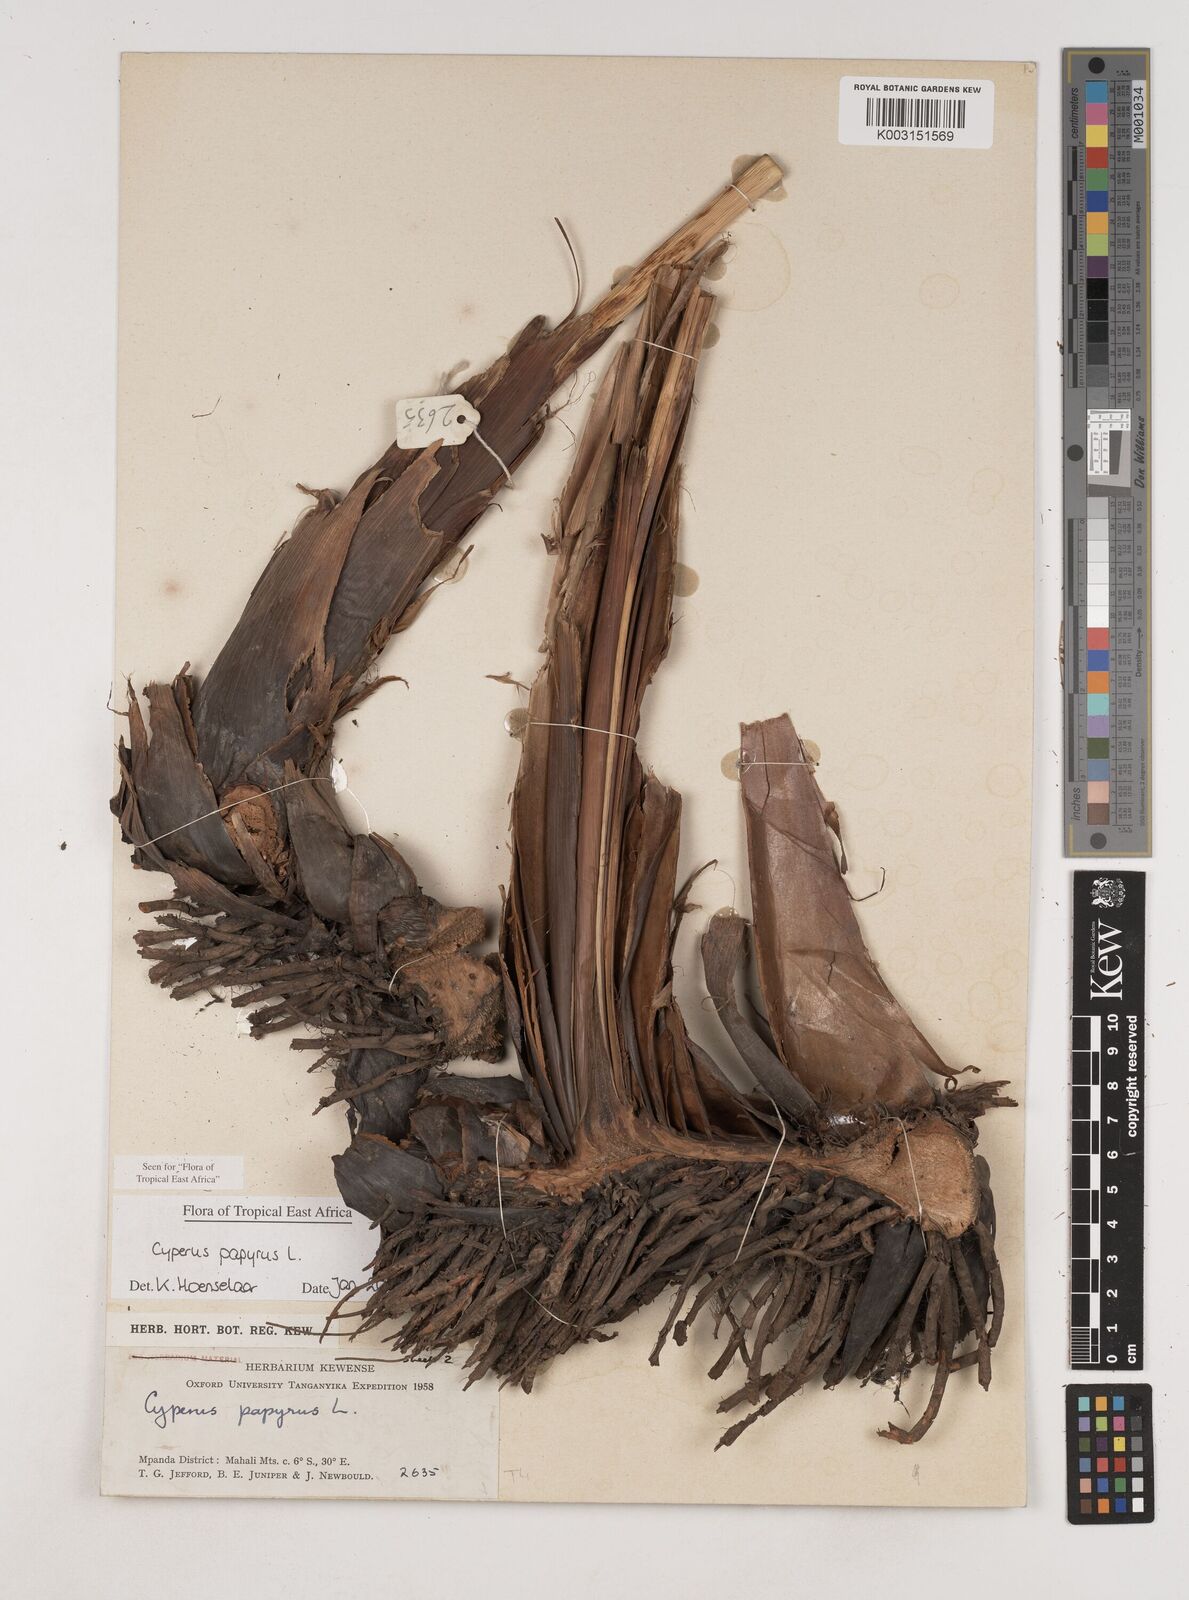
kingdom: Plantae
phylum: Tracheophyta
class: Liliopsida
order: Poales
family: Cyperaceae
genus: Cyperus
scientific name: Cyperus papyrus
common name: Papyrus
